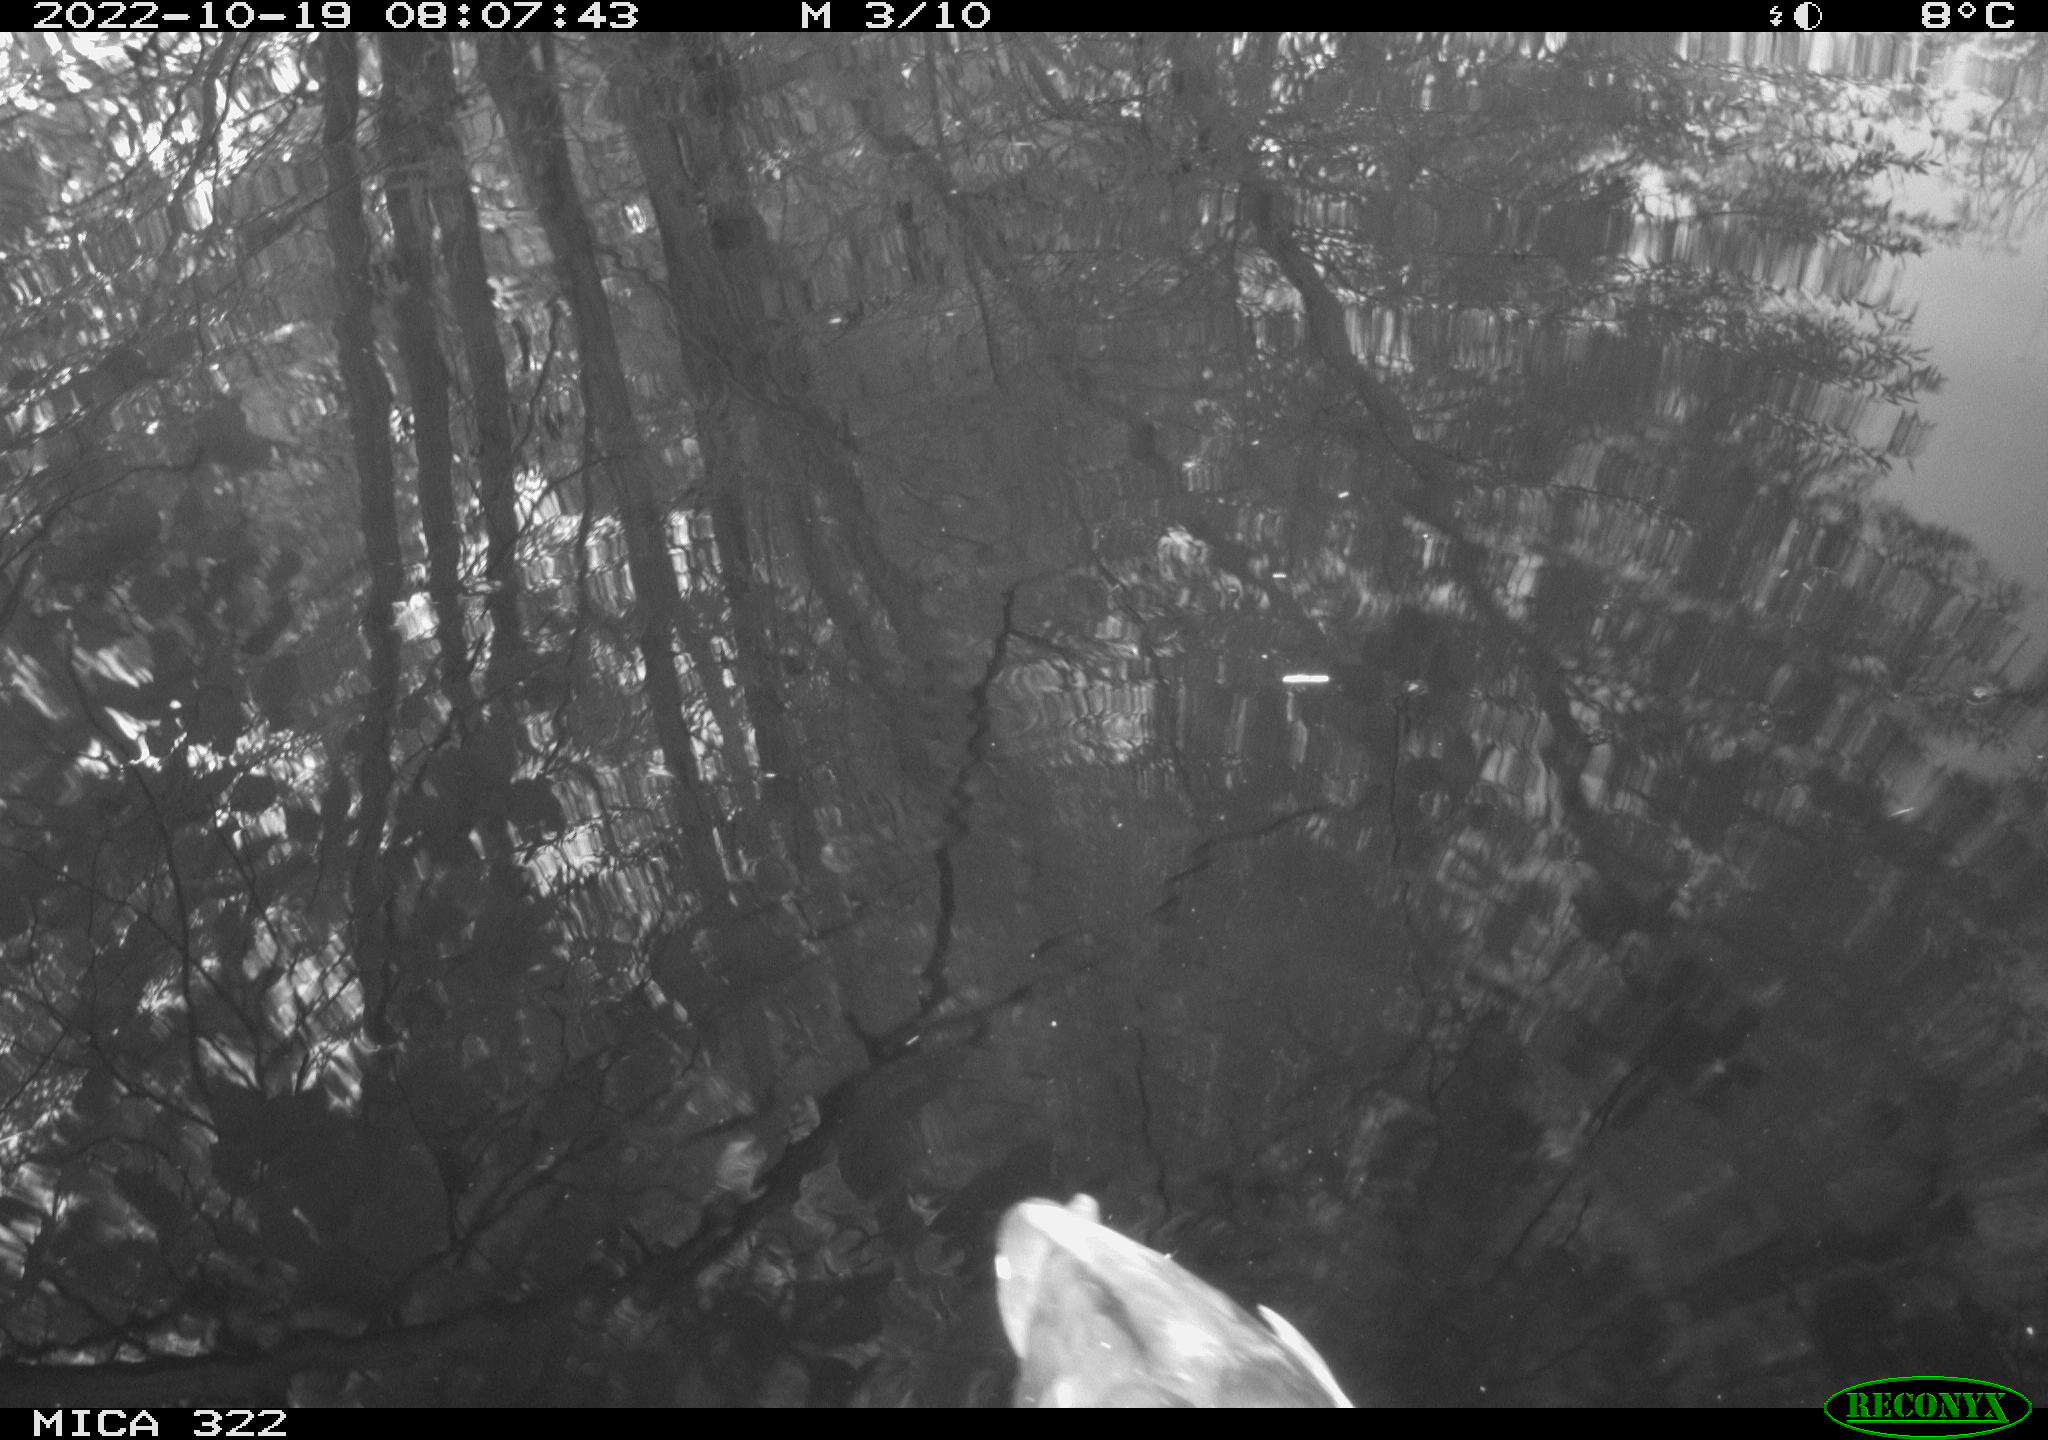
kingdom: Animalia
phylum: Chordata
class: Aves
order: Anseriformes
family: Anatidae
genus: Anas
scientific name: Anas
